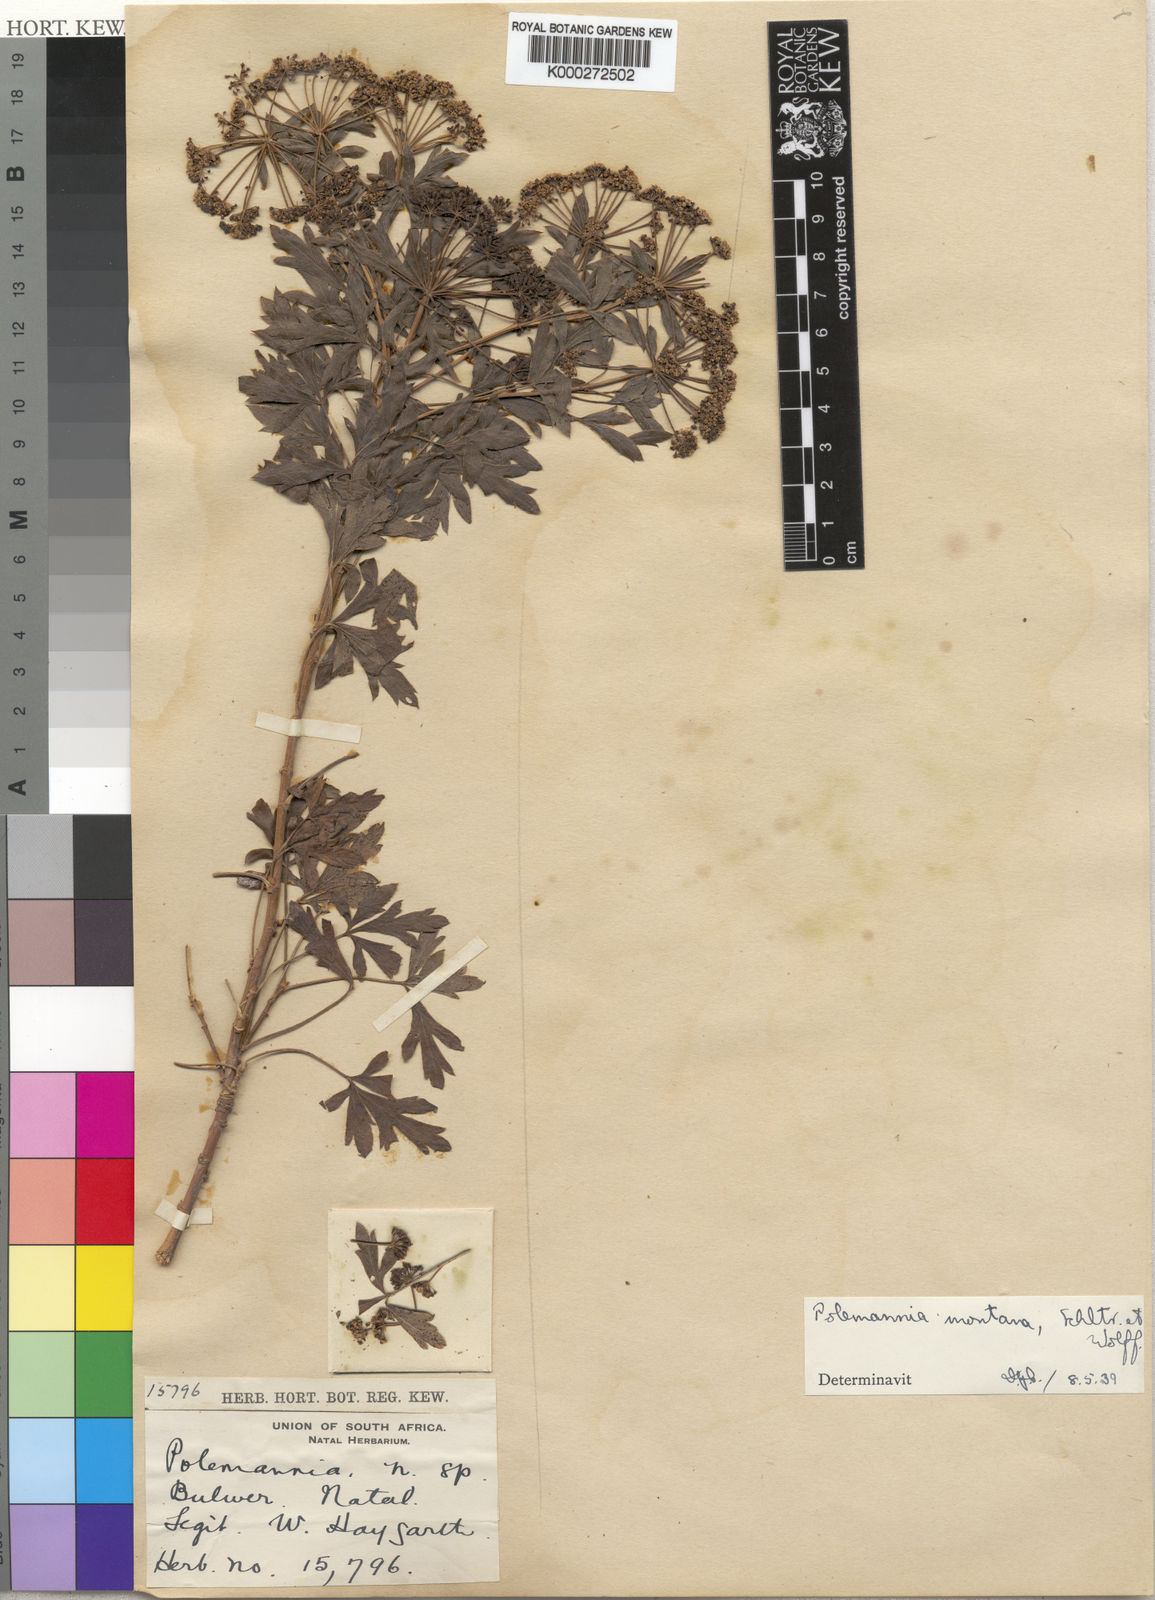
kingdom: Plantae
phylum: Tracheophyta
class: Magnoliopsida
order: Apiales
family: Apiaceae
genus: Polemannia
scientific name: Polemannia montana
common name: Mountain false parsley-tree
